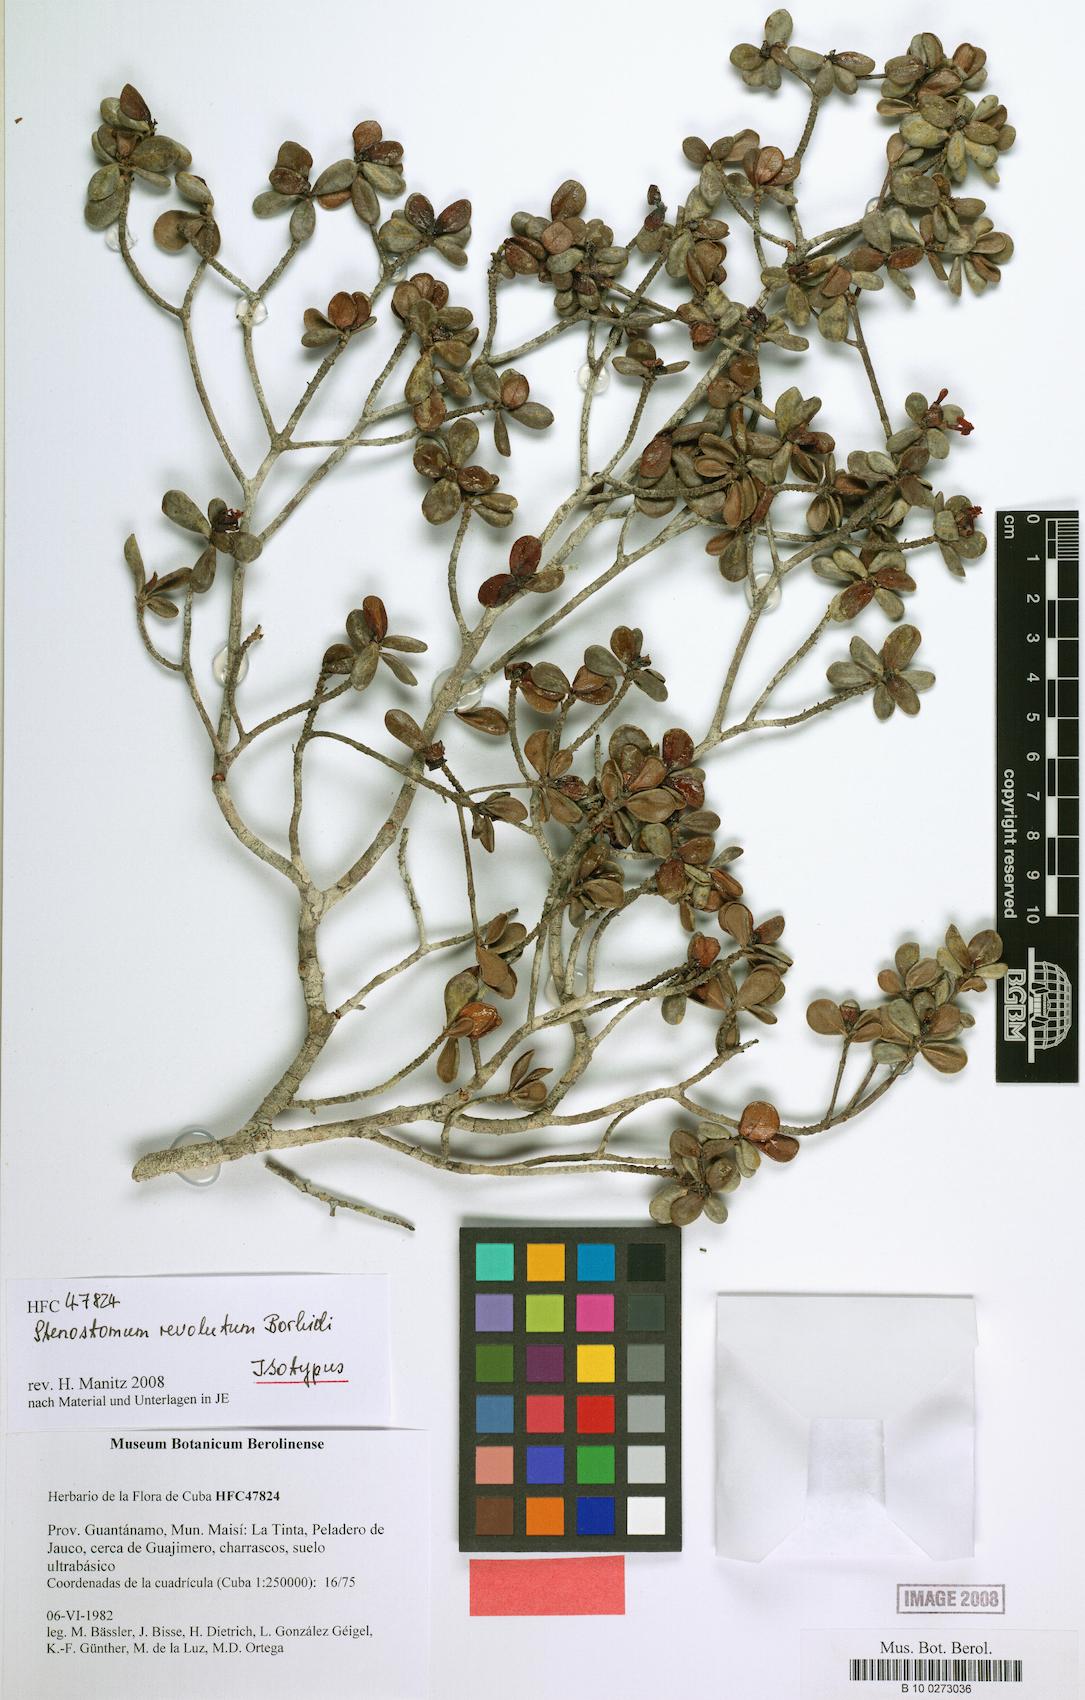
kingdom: Plantae
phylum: Tracheophyta
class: Magnoliopsida
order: Gentianales
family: Rubiaceae
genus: Stenostomum
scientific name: Stenostomum revolutum
